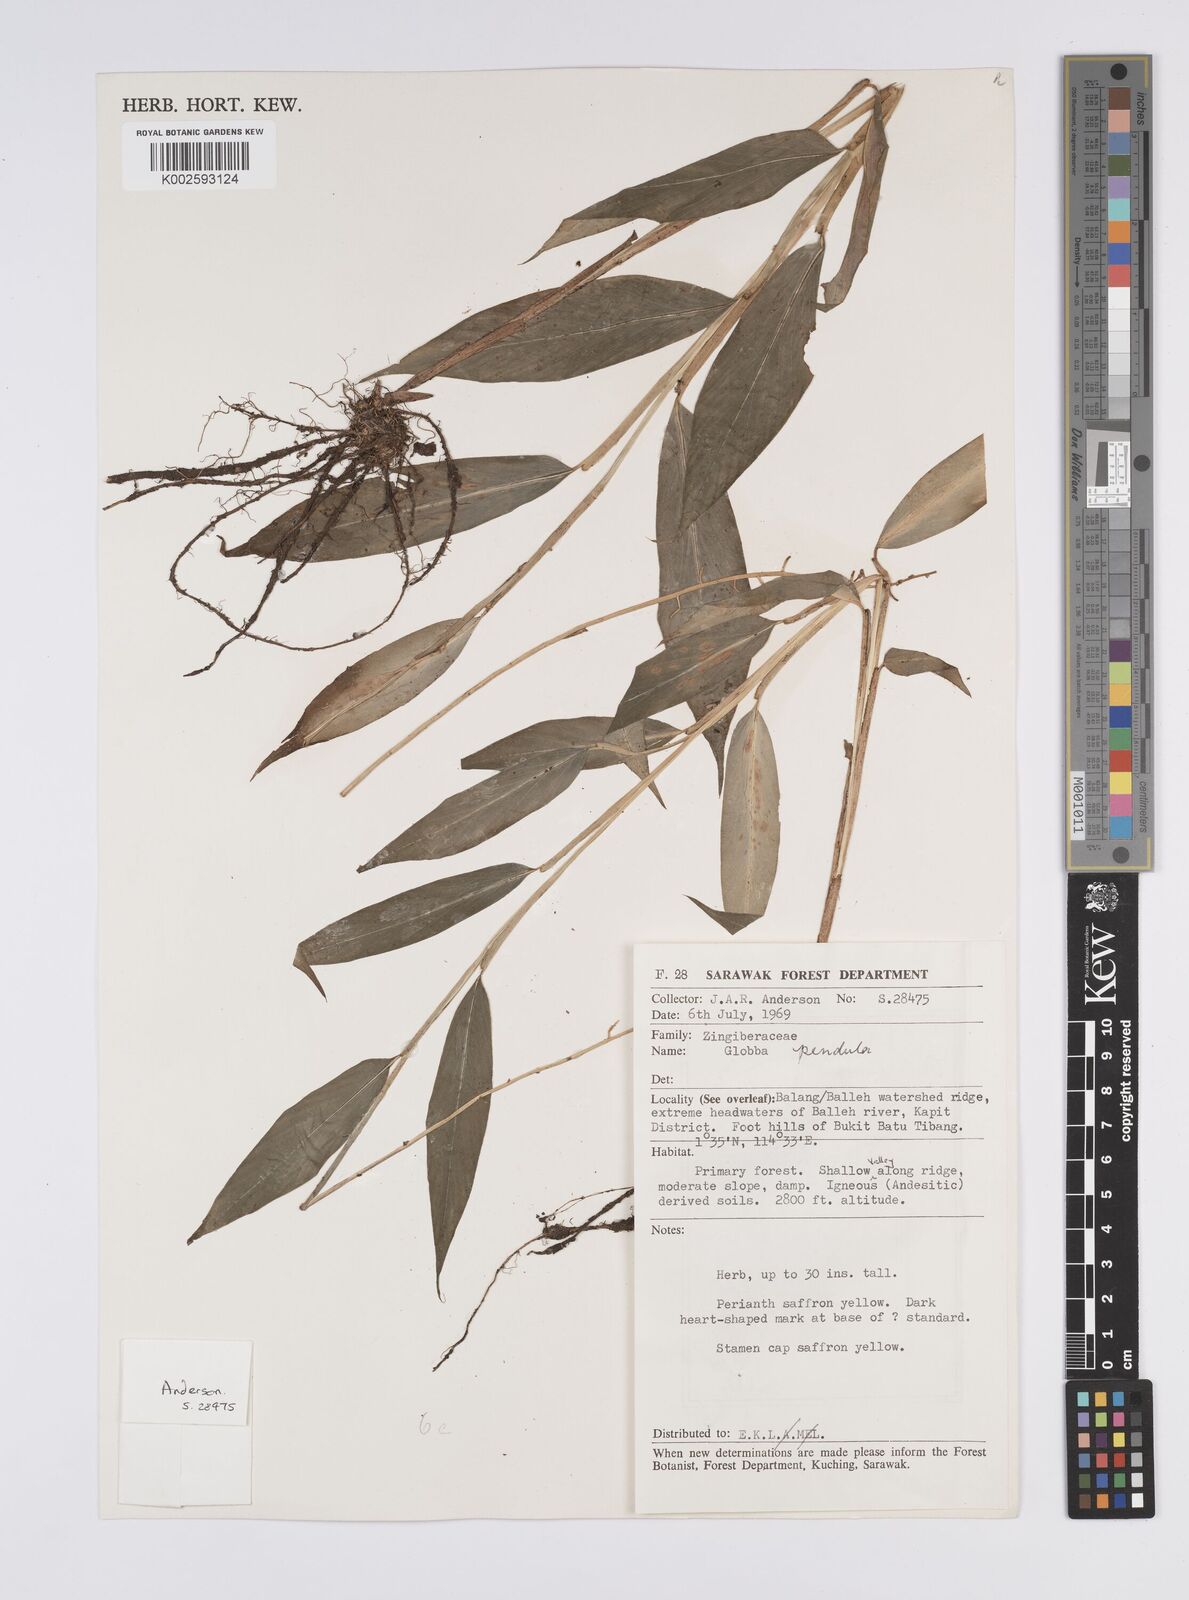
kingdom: Plantae
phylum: Tracheophyta
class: Liliopsida
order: Zingiberales
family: Zingiberaceae
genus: Globba
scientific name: Globba pendula
